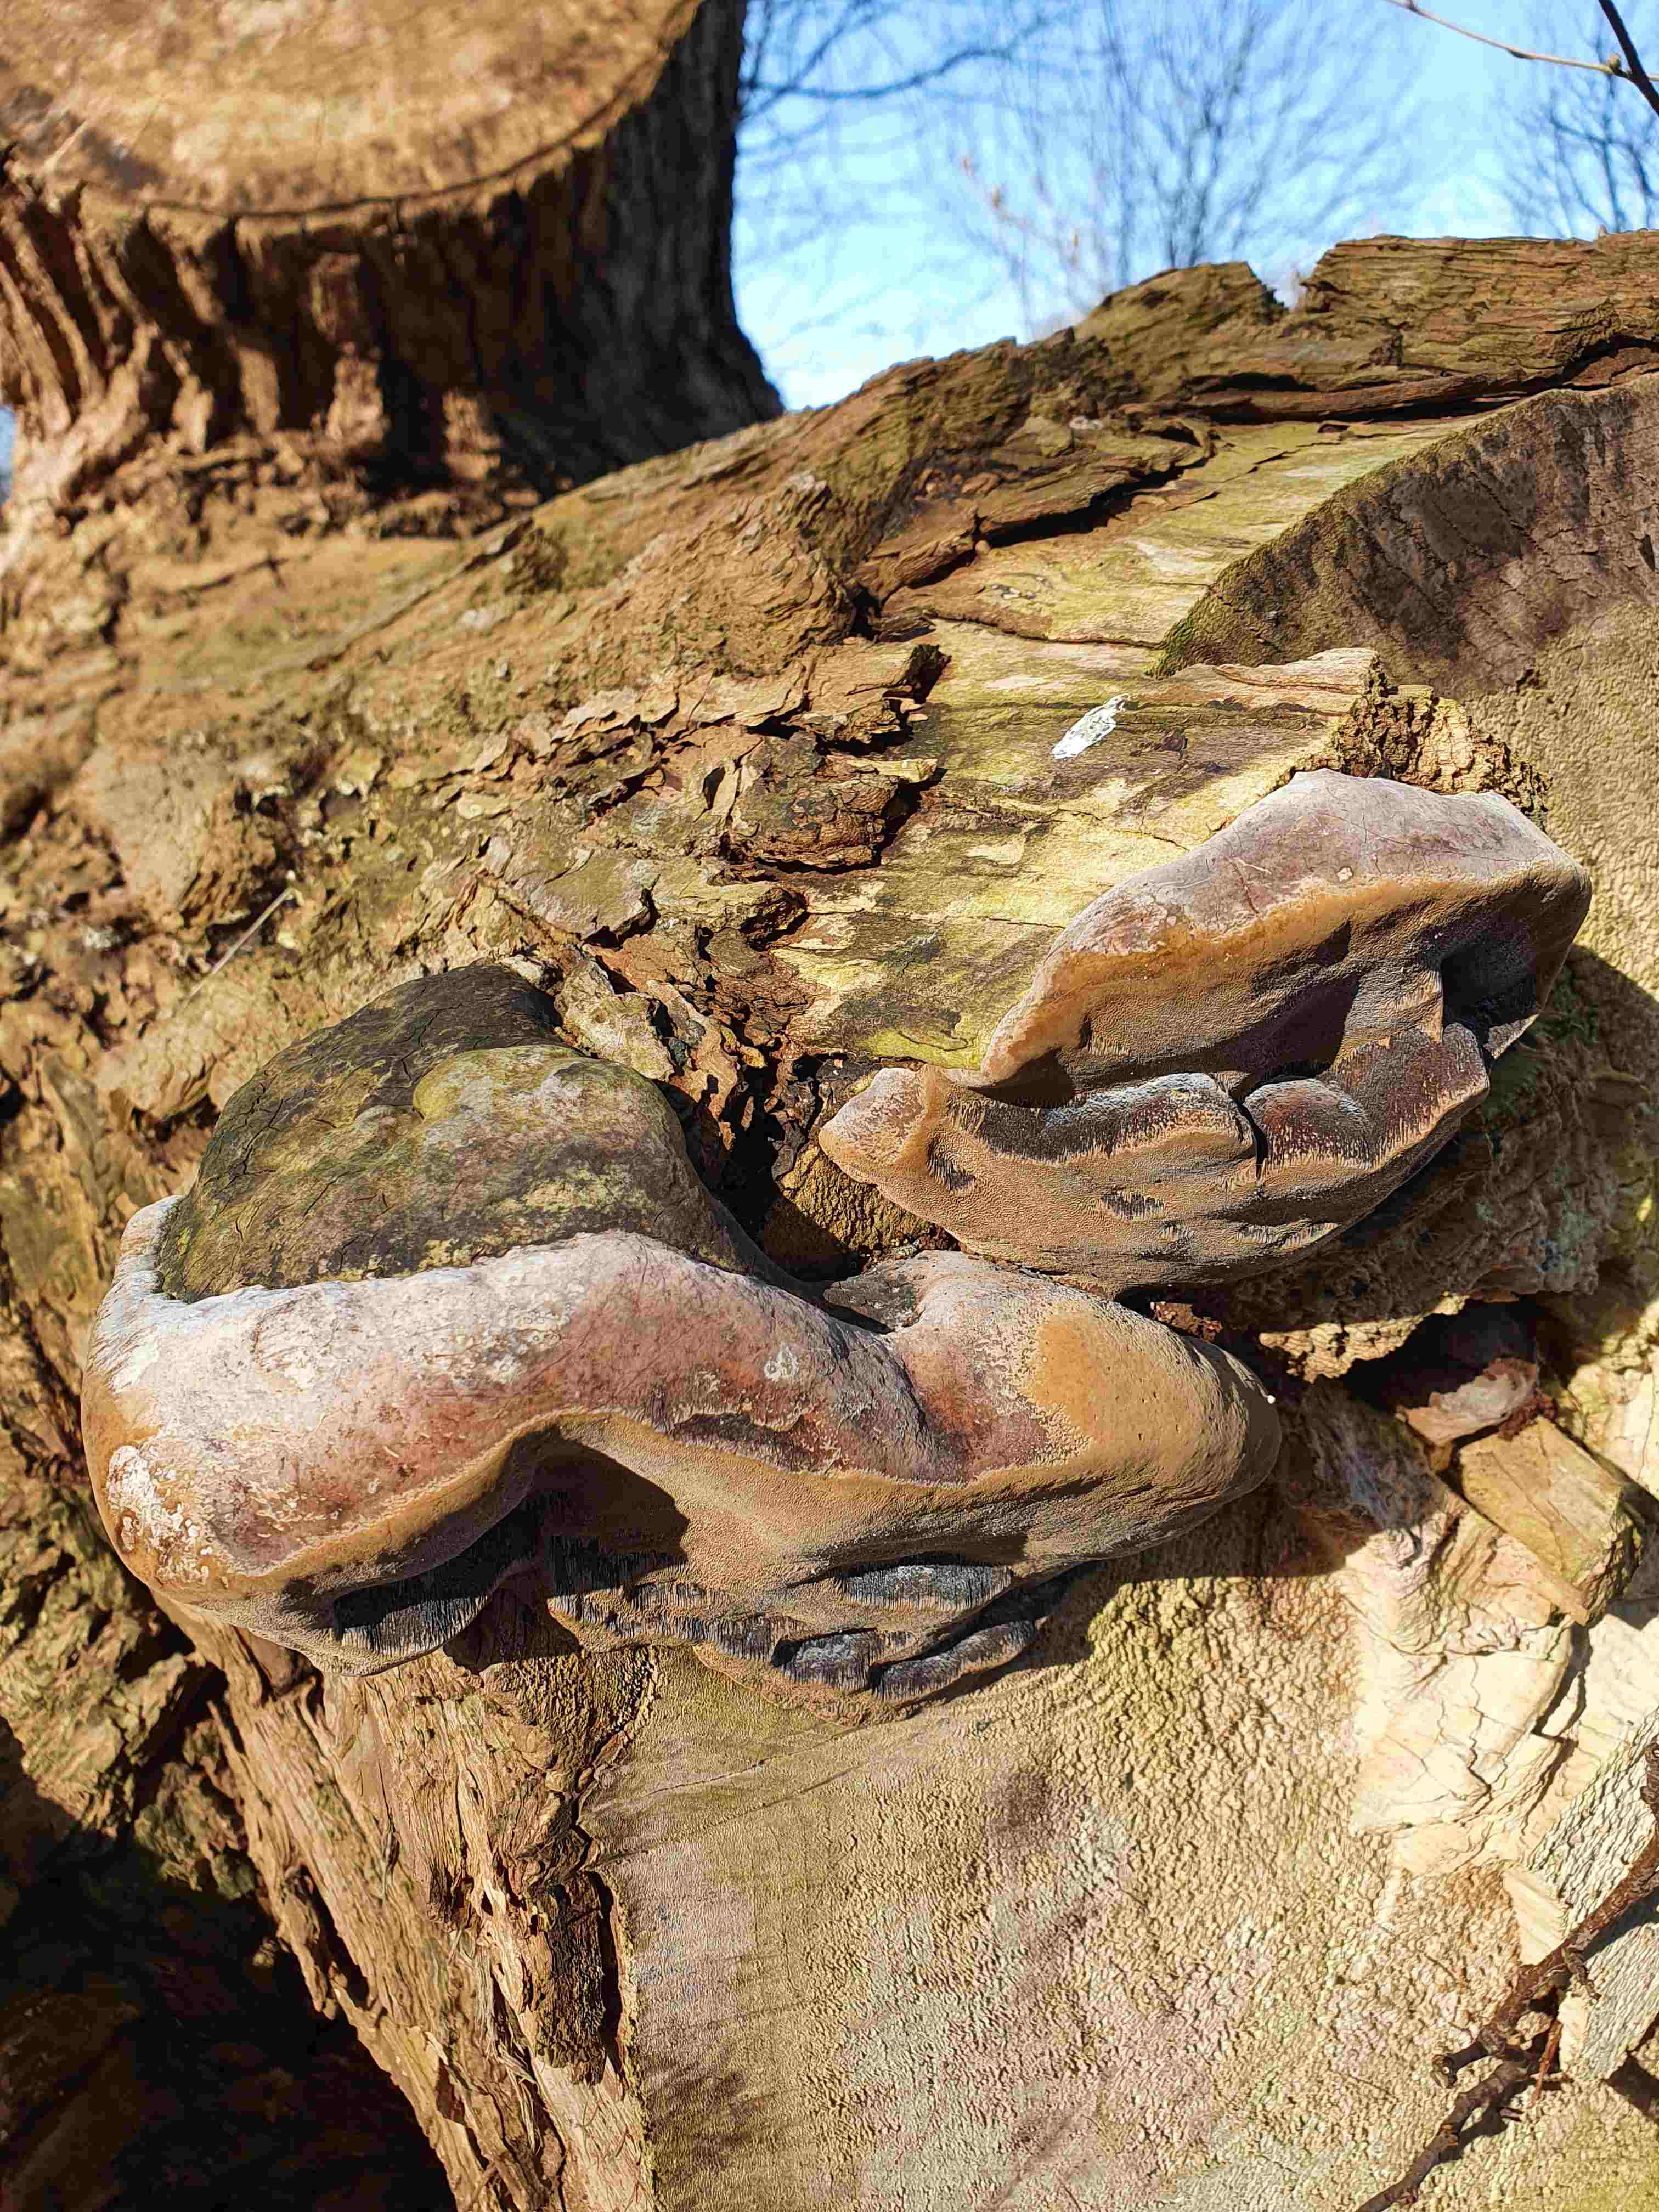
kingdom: Fungi
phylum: Basidiomycota
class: Agaricomycetes
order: Hymenochaetales
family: Hymenochaetaceae
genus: Phellinus
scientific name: Phellinus populicola
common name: poppel-ildporesvamp
